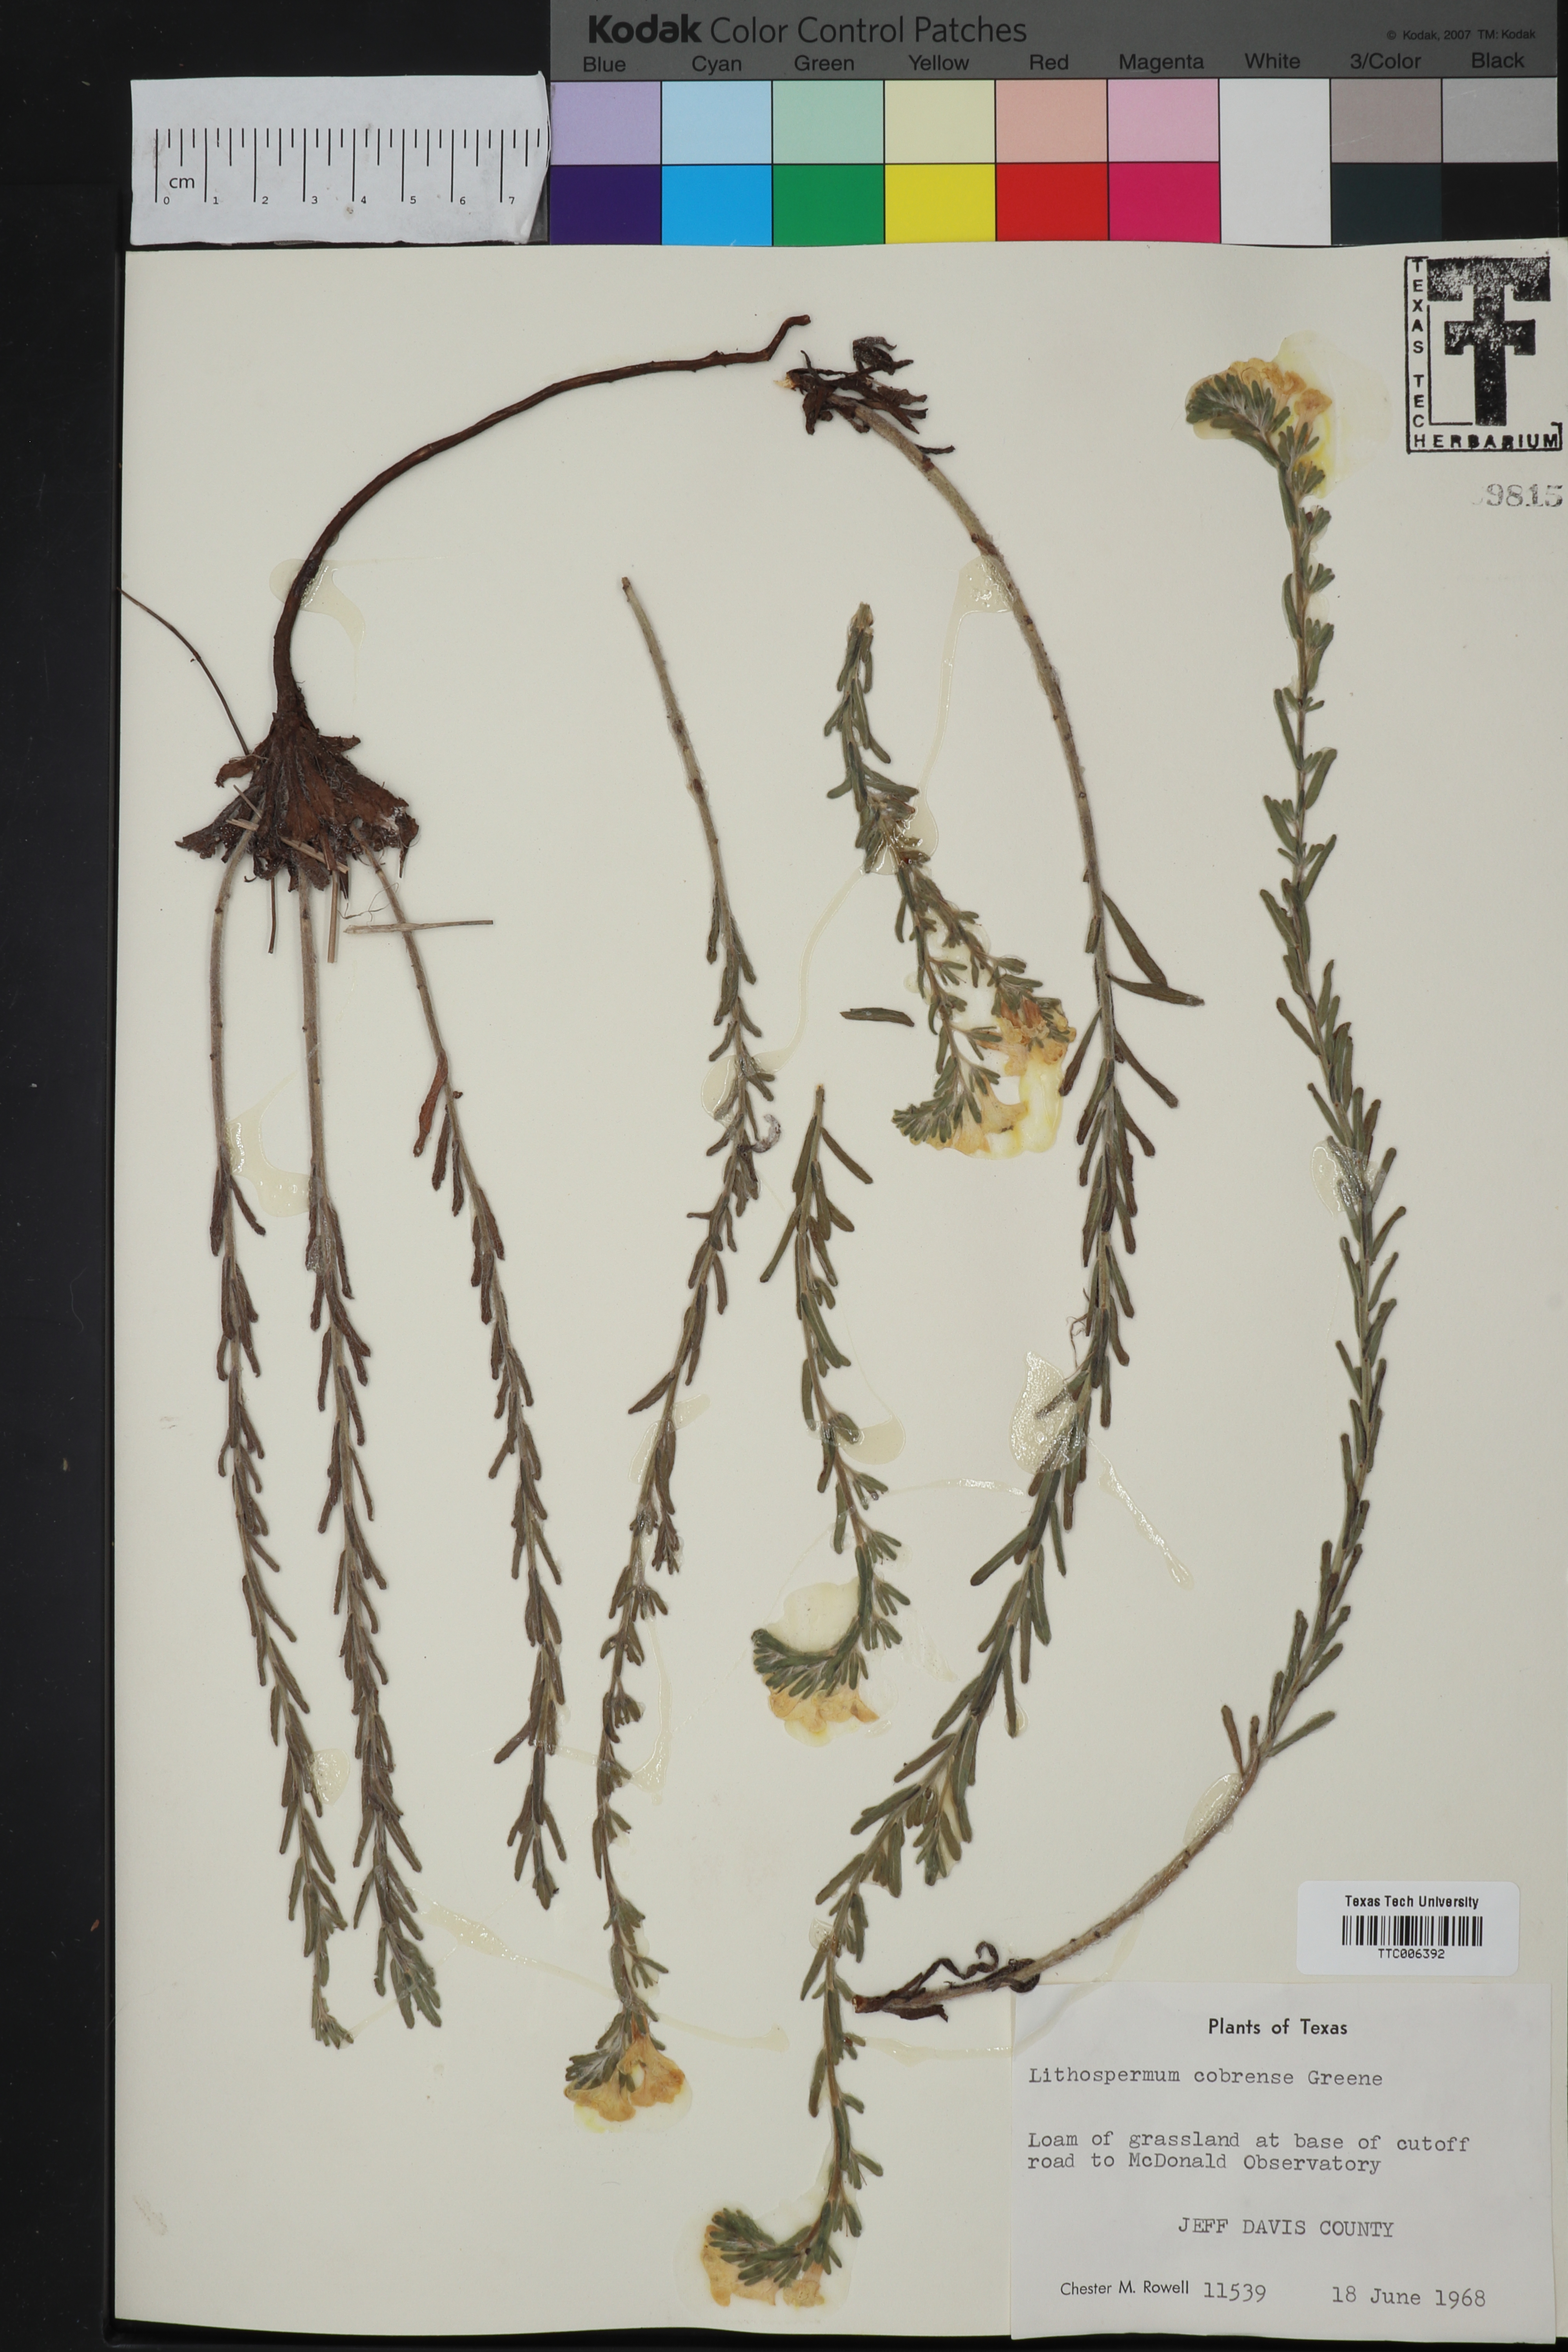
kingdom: Plantae
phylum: Tracheophyta
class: Magnoliopsida
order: Boraginales
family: Boraginaceae
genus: Lithospermum
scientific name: Lithospermum cobrense
